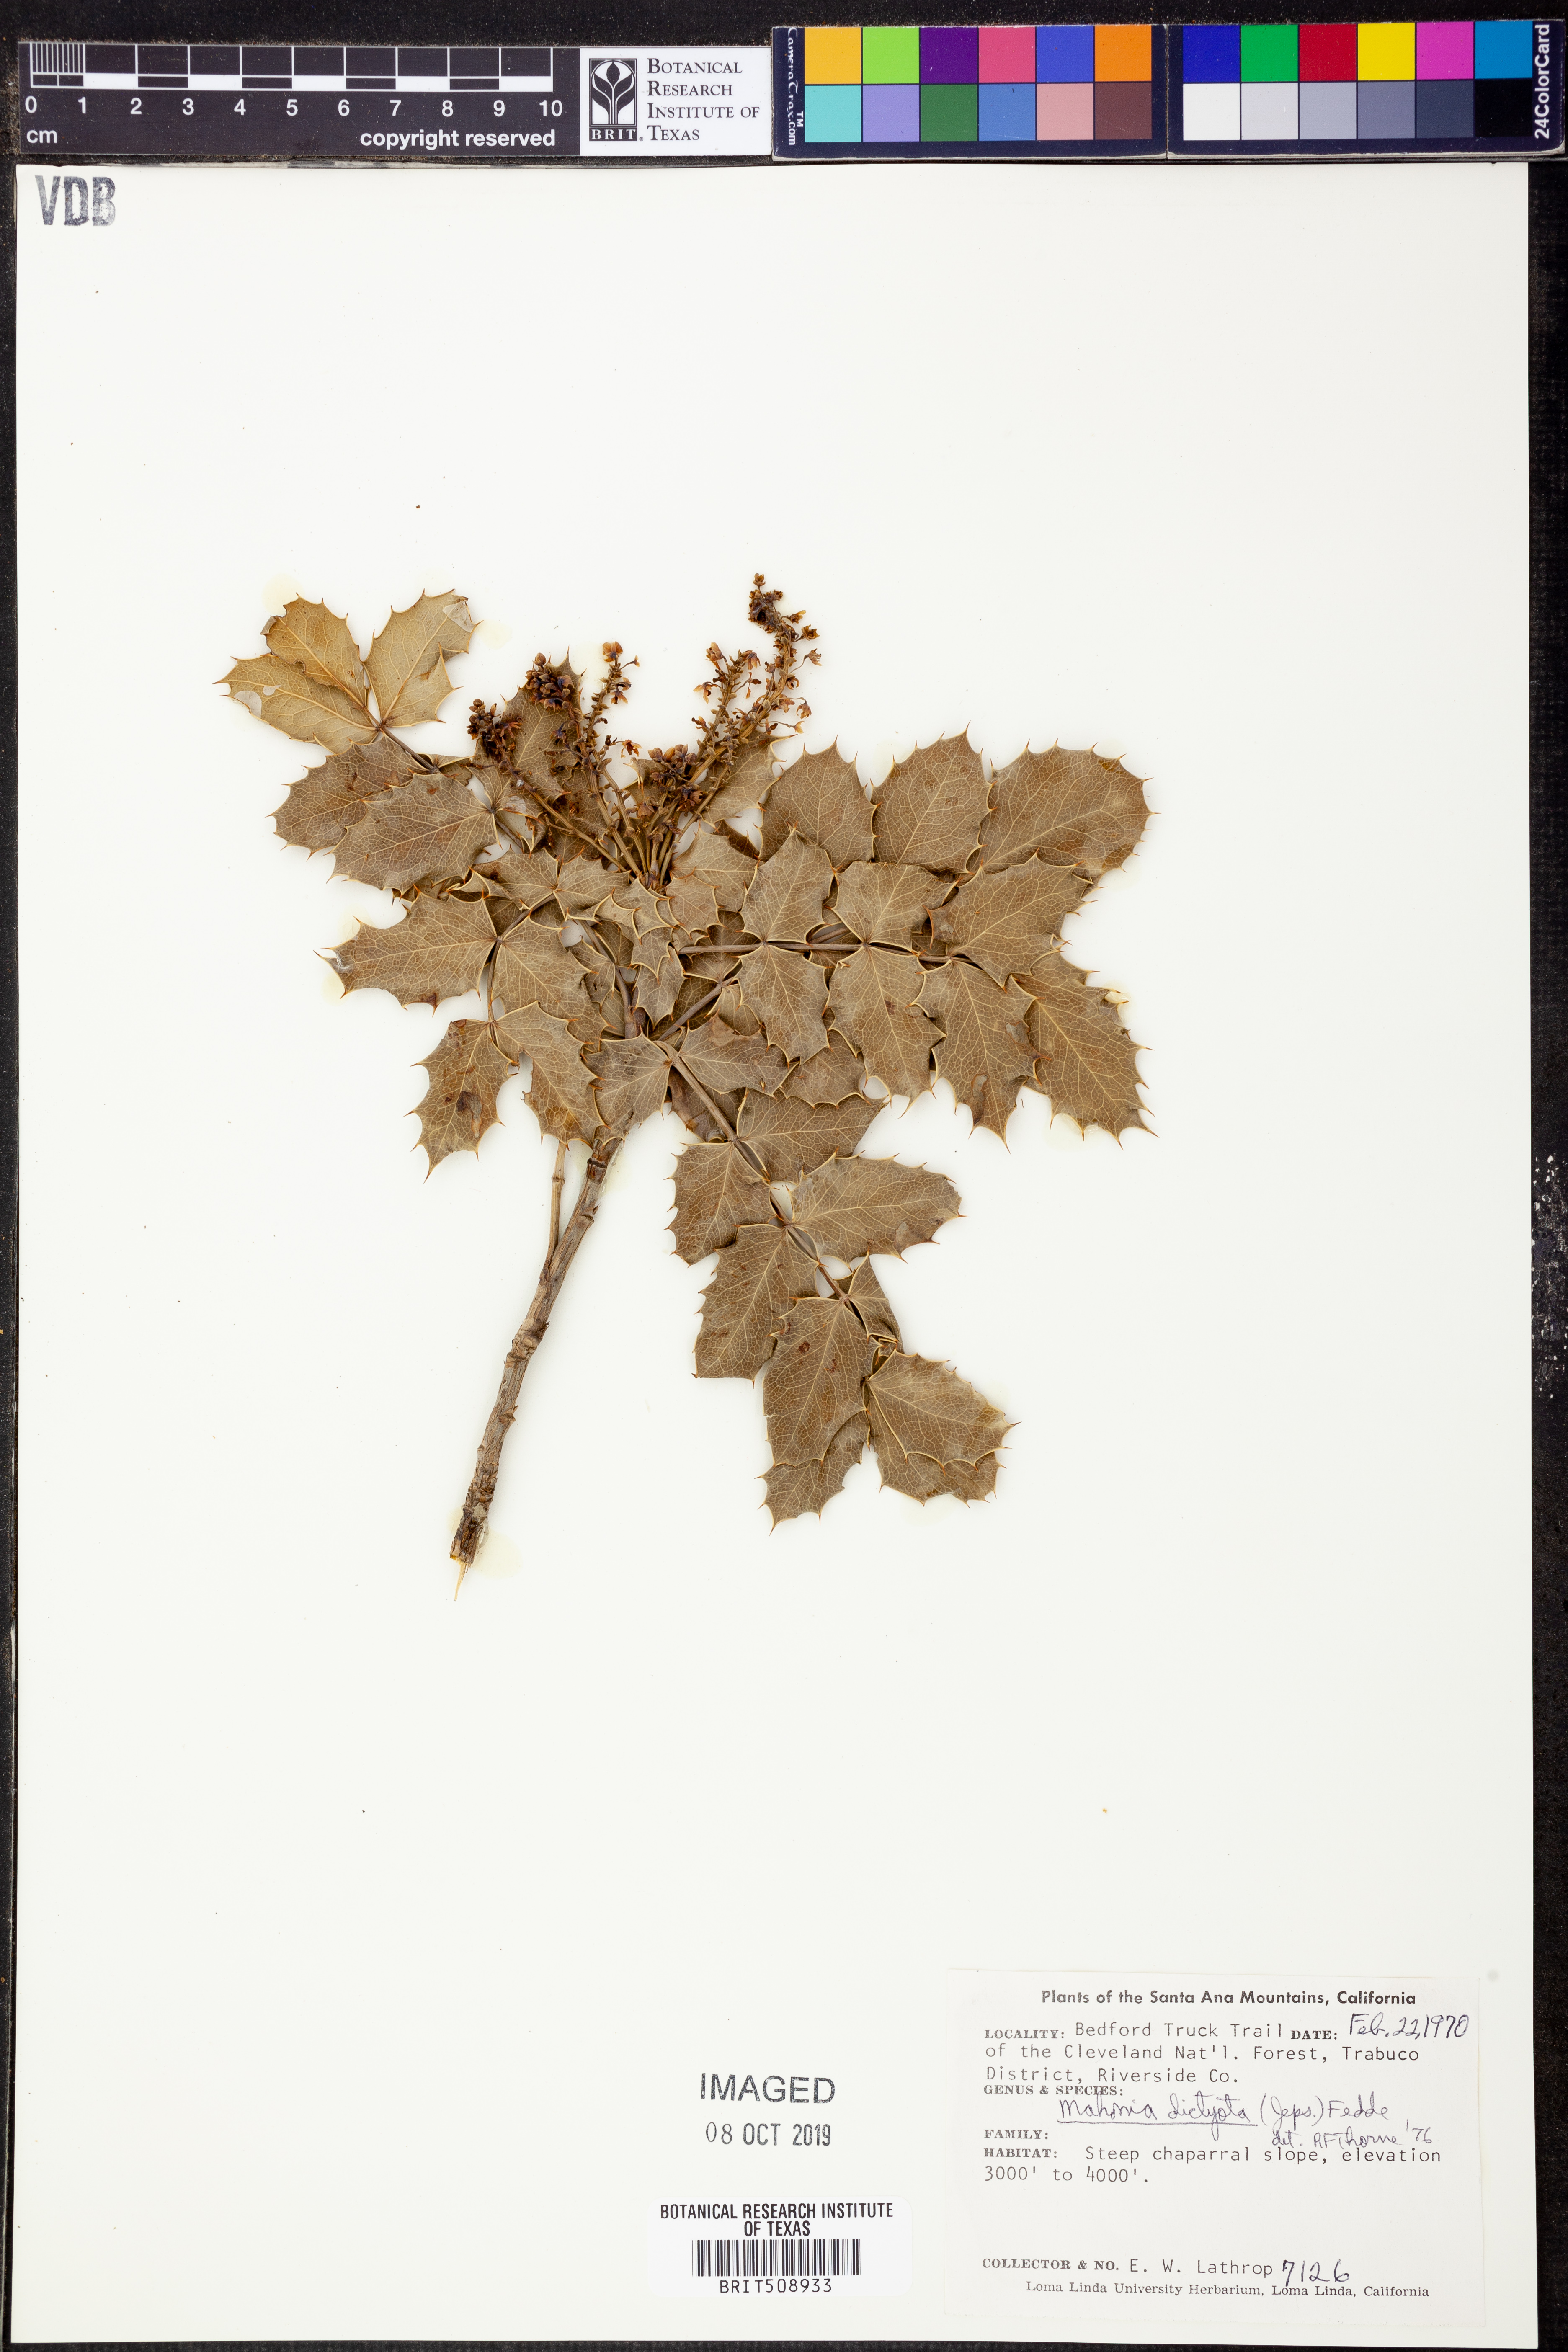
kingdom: Plantae
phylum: Tracheophyta
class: Magnoliopsida
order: Ranunculales
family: Berberidaceae
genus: Mahonia
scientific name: Mahonia dictyota
